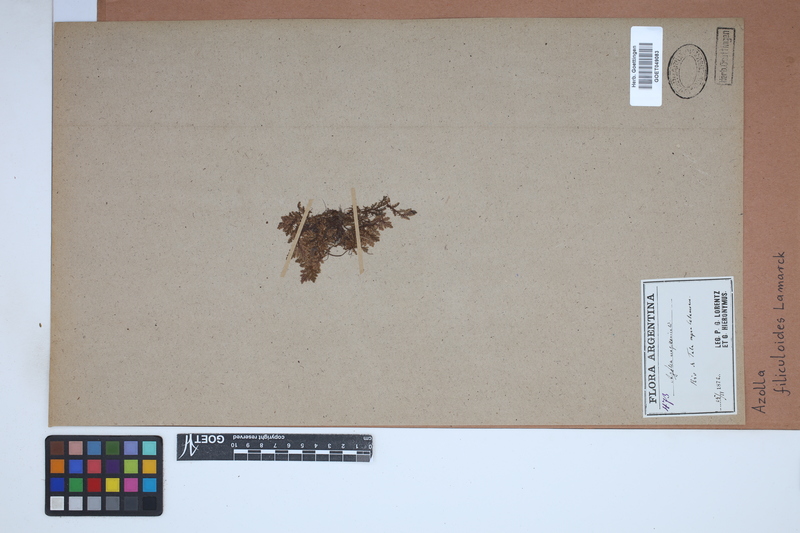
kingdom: Plantae
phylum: Tracheophyta
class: Polypodiopsida
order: Salviniales
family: Salviniaceae
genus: Azolla
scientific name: Azolla filiculoides
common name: Water fern
